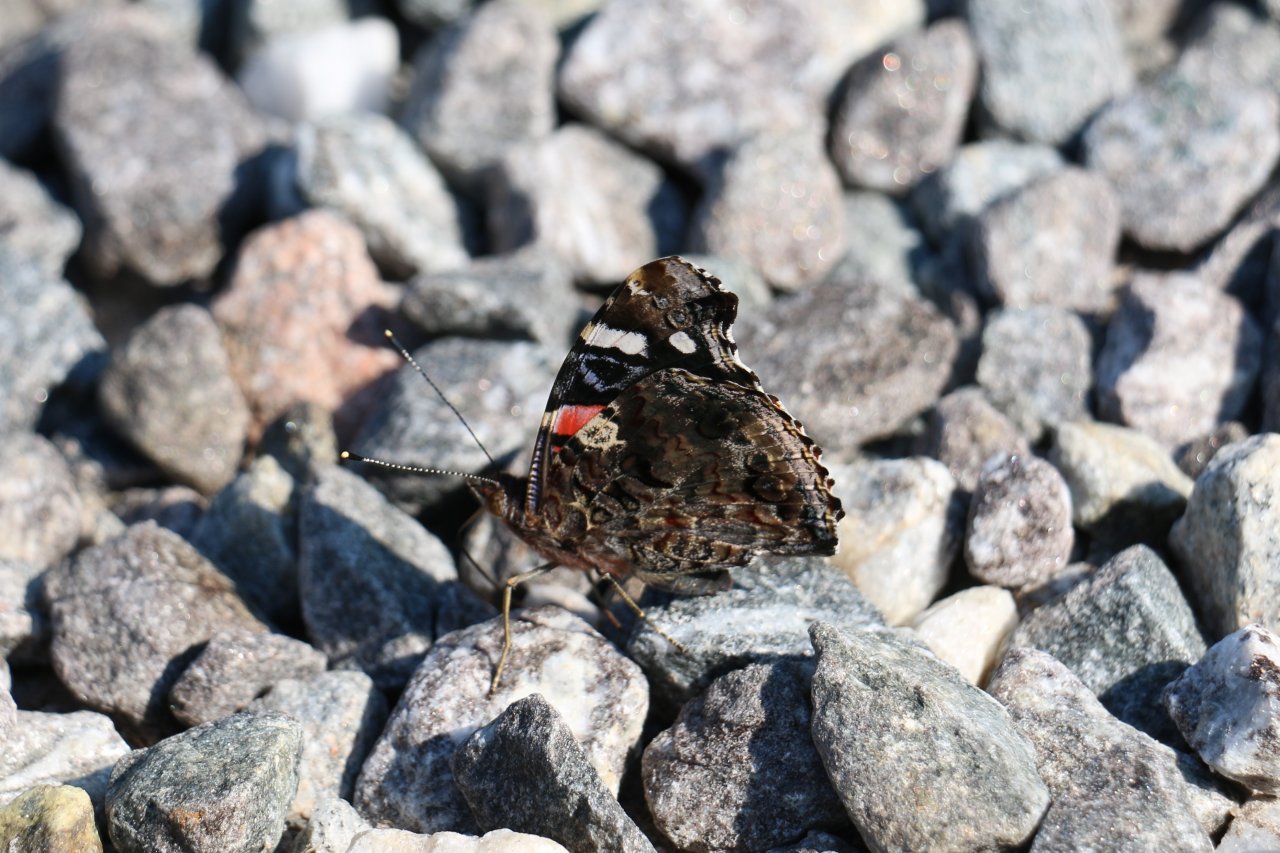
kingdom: Animalia
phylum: Arthropoda
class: Insecta
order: Lepidoptera
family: Nymphalidae
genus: Vanessa
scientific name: Vanessa atalanta
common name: Red Admiral
